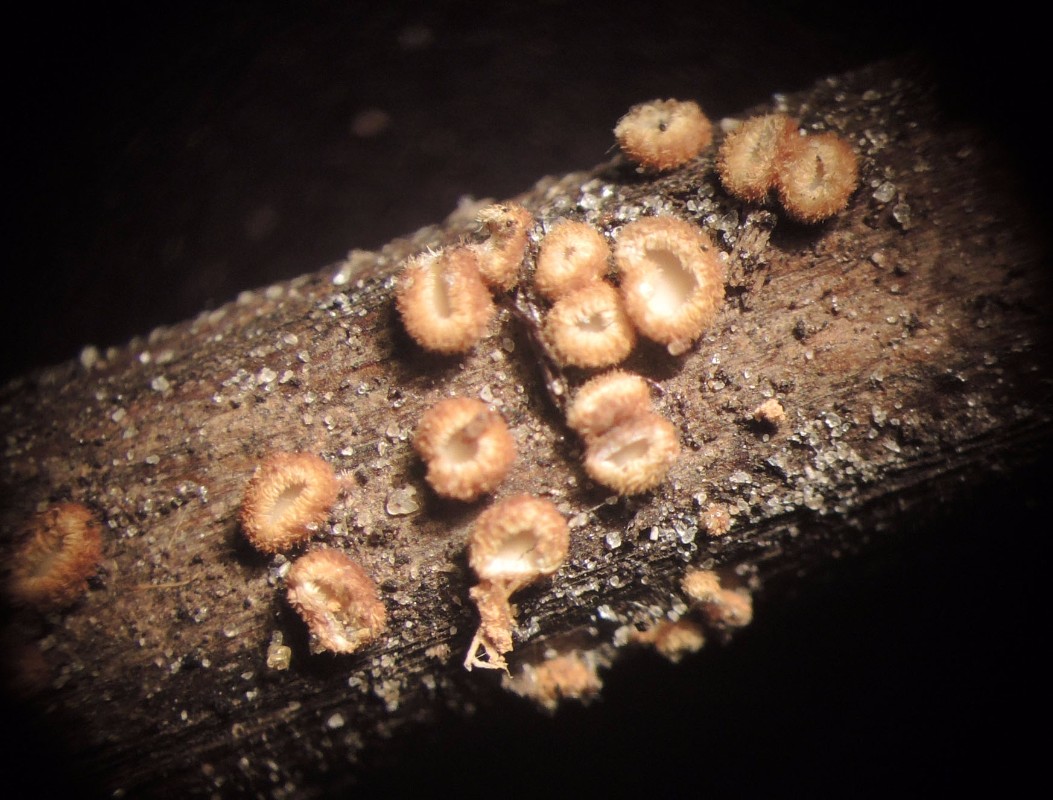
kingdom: Fungi
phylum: Ascomycota
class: Leotiomycetes
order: Helotiales
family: Lachnaceae
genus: Lachnum
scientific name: Lachnum mollissimum
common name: smuk frynseskive
